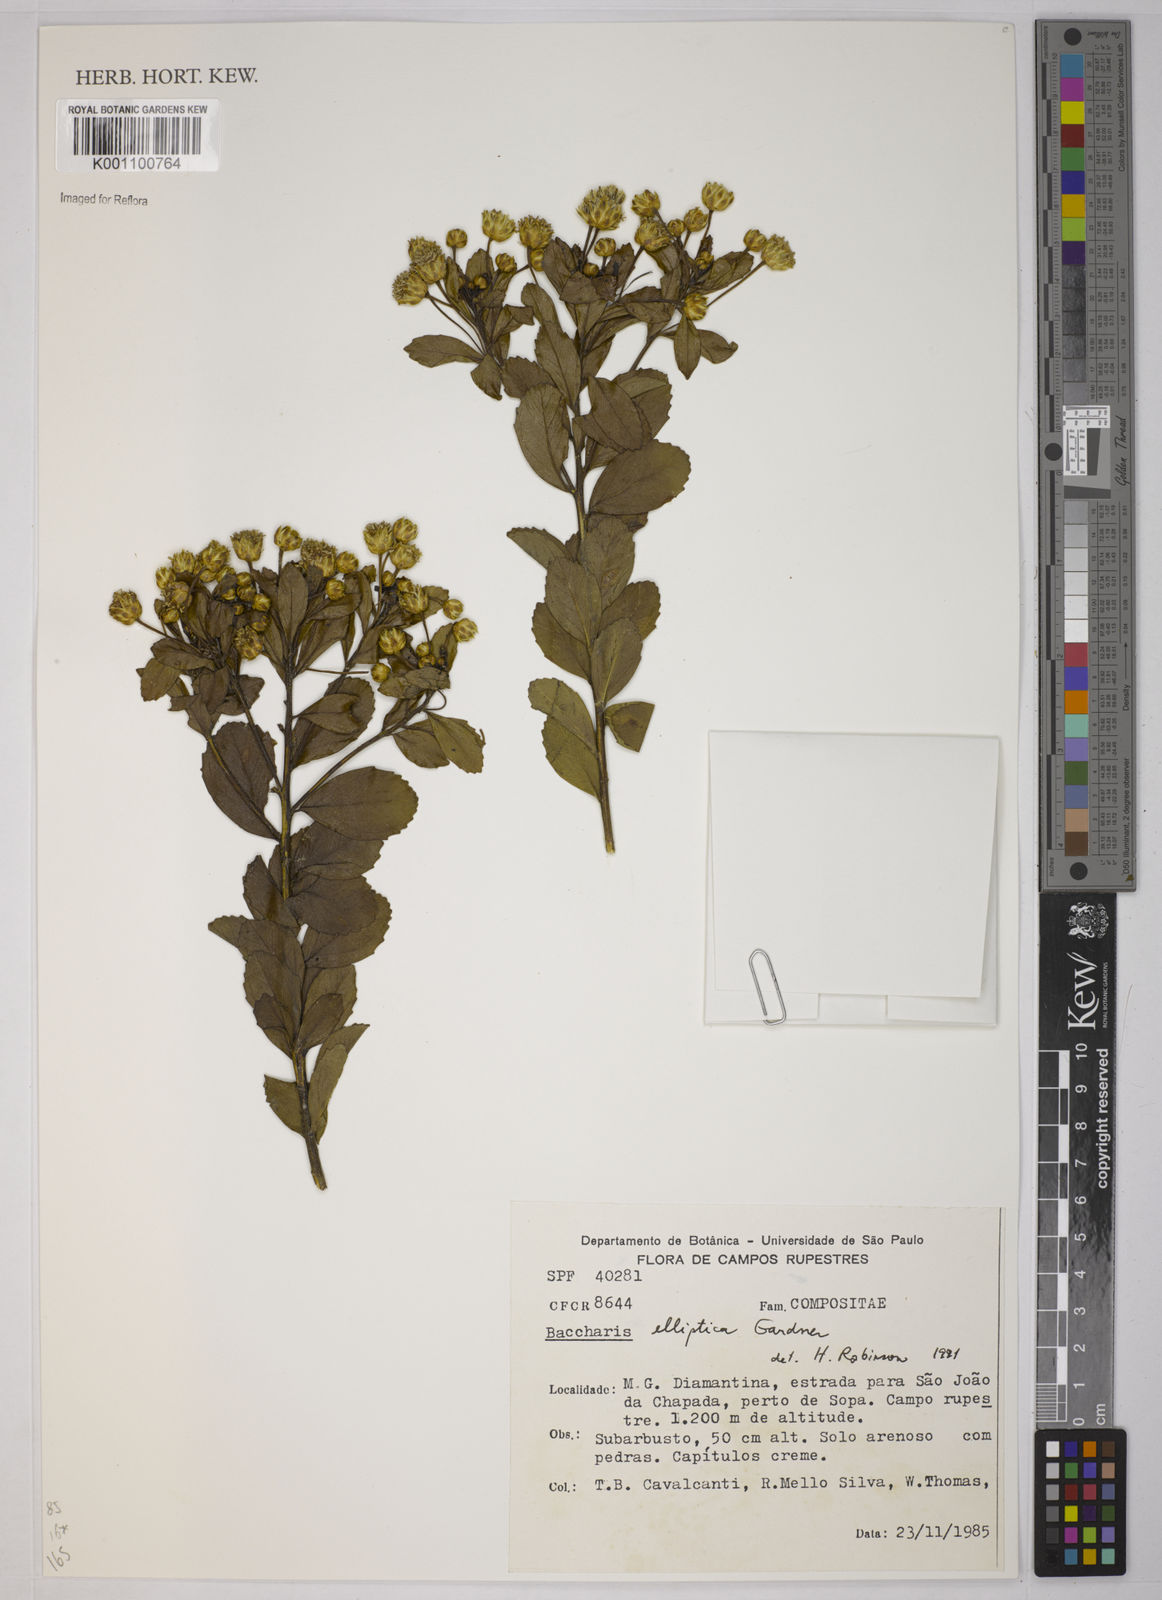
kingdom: Plantae
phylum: Tracheophyta
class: Magnoliopsida
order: Asterales
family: Asteraceae
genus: Baccharis
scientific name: Baccharis elliptica
